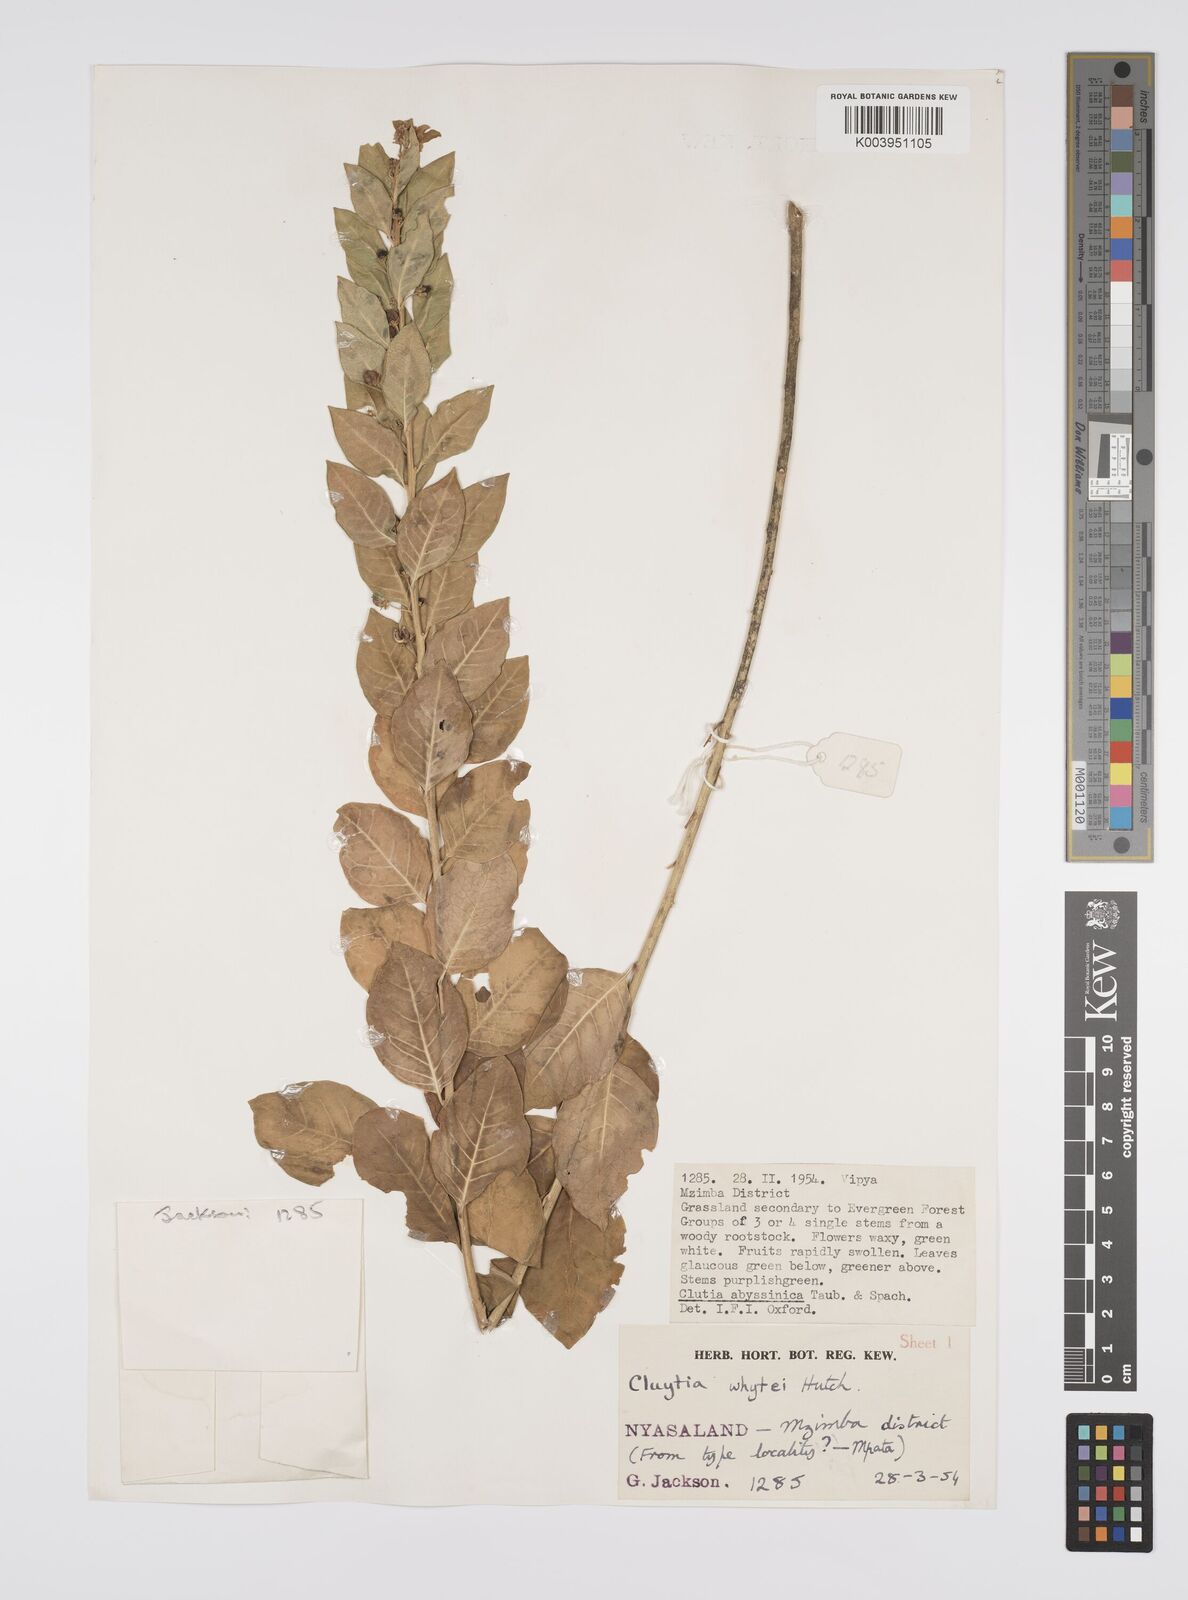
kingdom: Plantae
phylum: Tracheophyta
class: Magnoliopsida
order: Malpighiales
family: Peraceae
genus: Clutia
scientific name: Clutia
